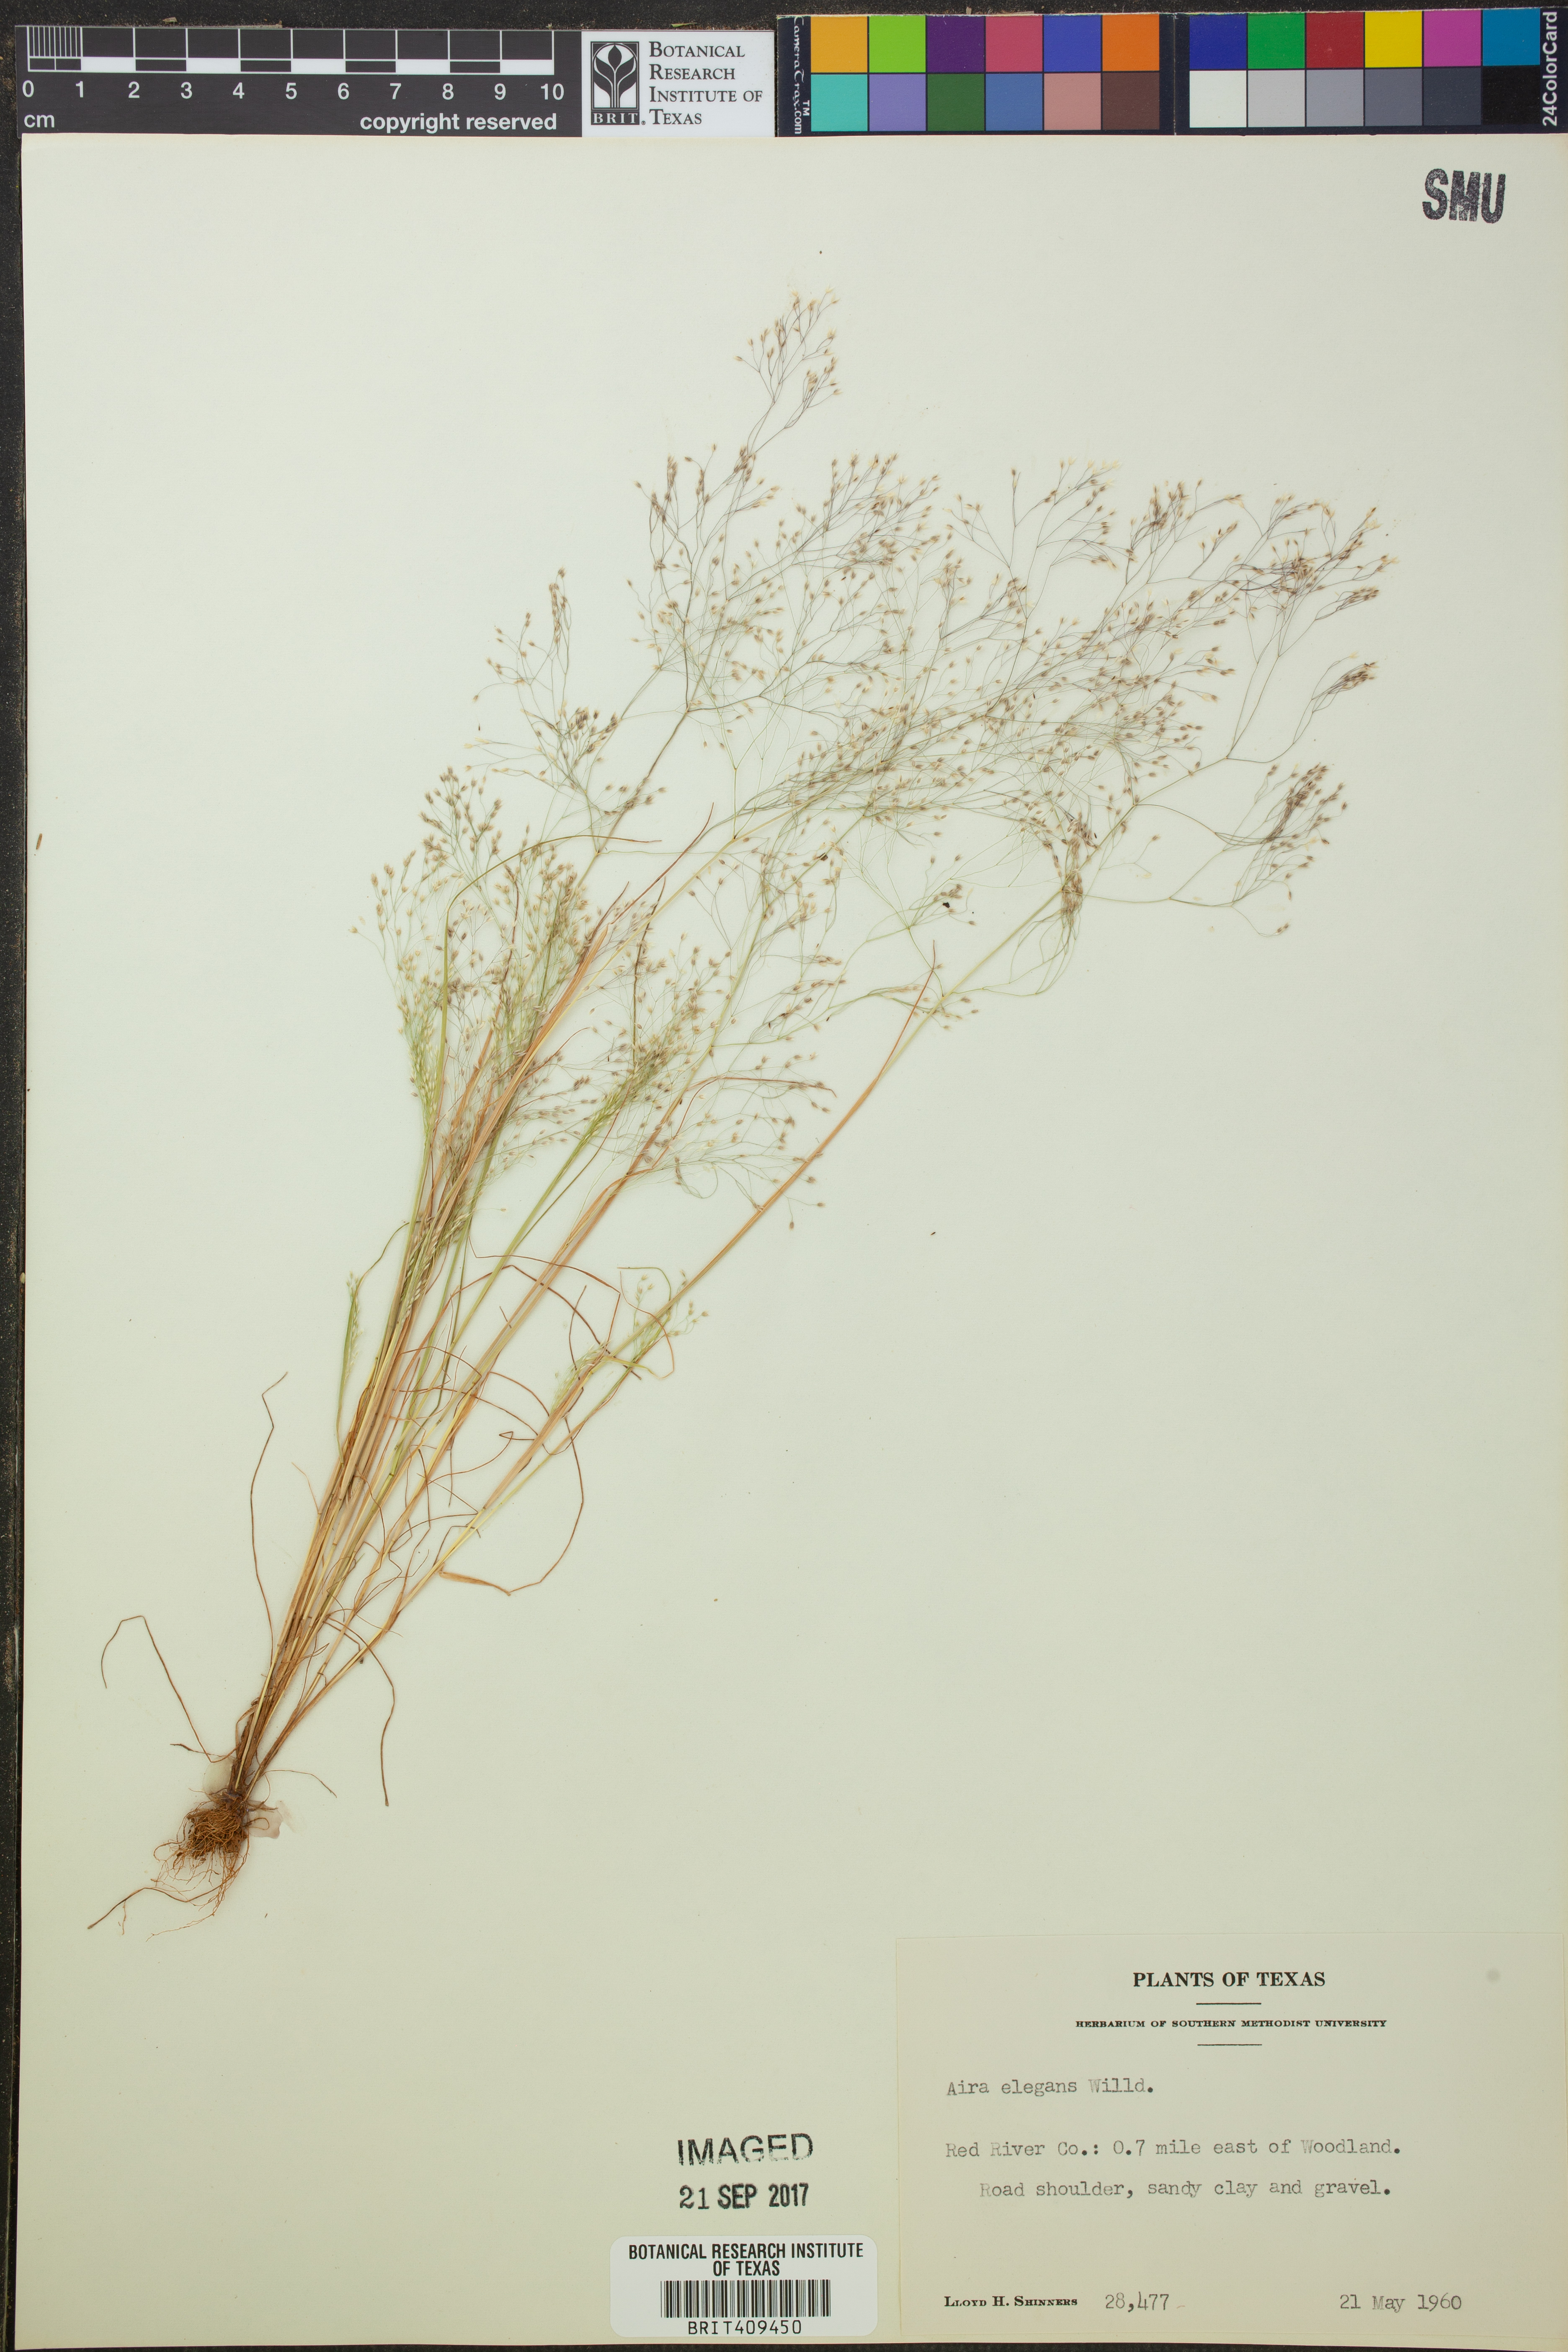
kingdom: Plantae
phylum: Tracheophyta
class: Liliopsida
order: Poales
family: Poaceae
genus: Aira
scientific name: Aira elegans
